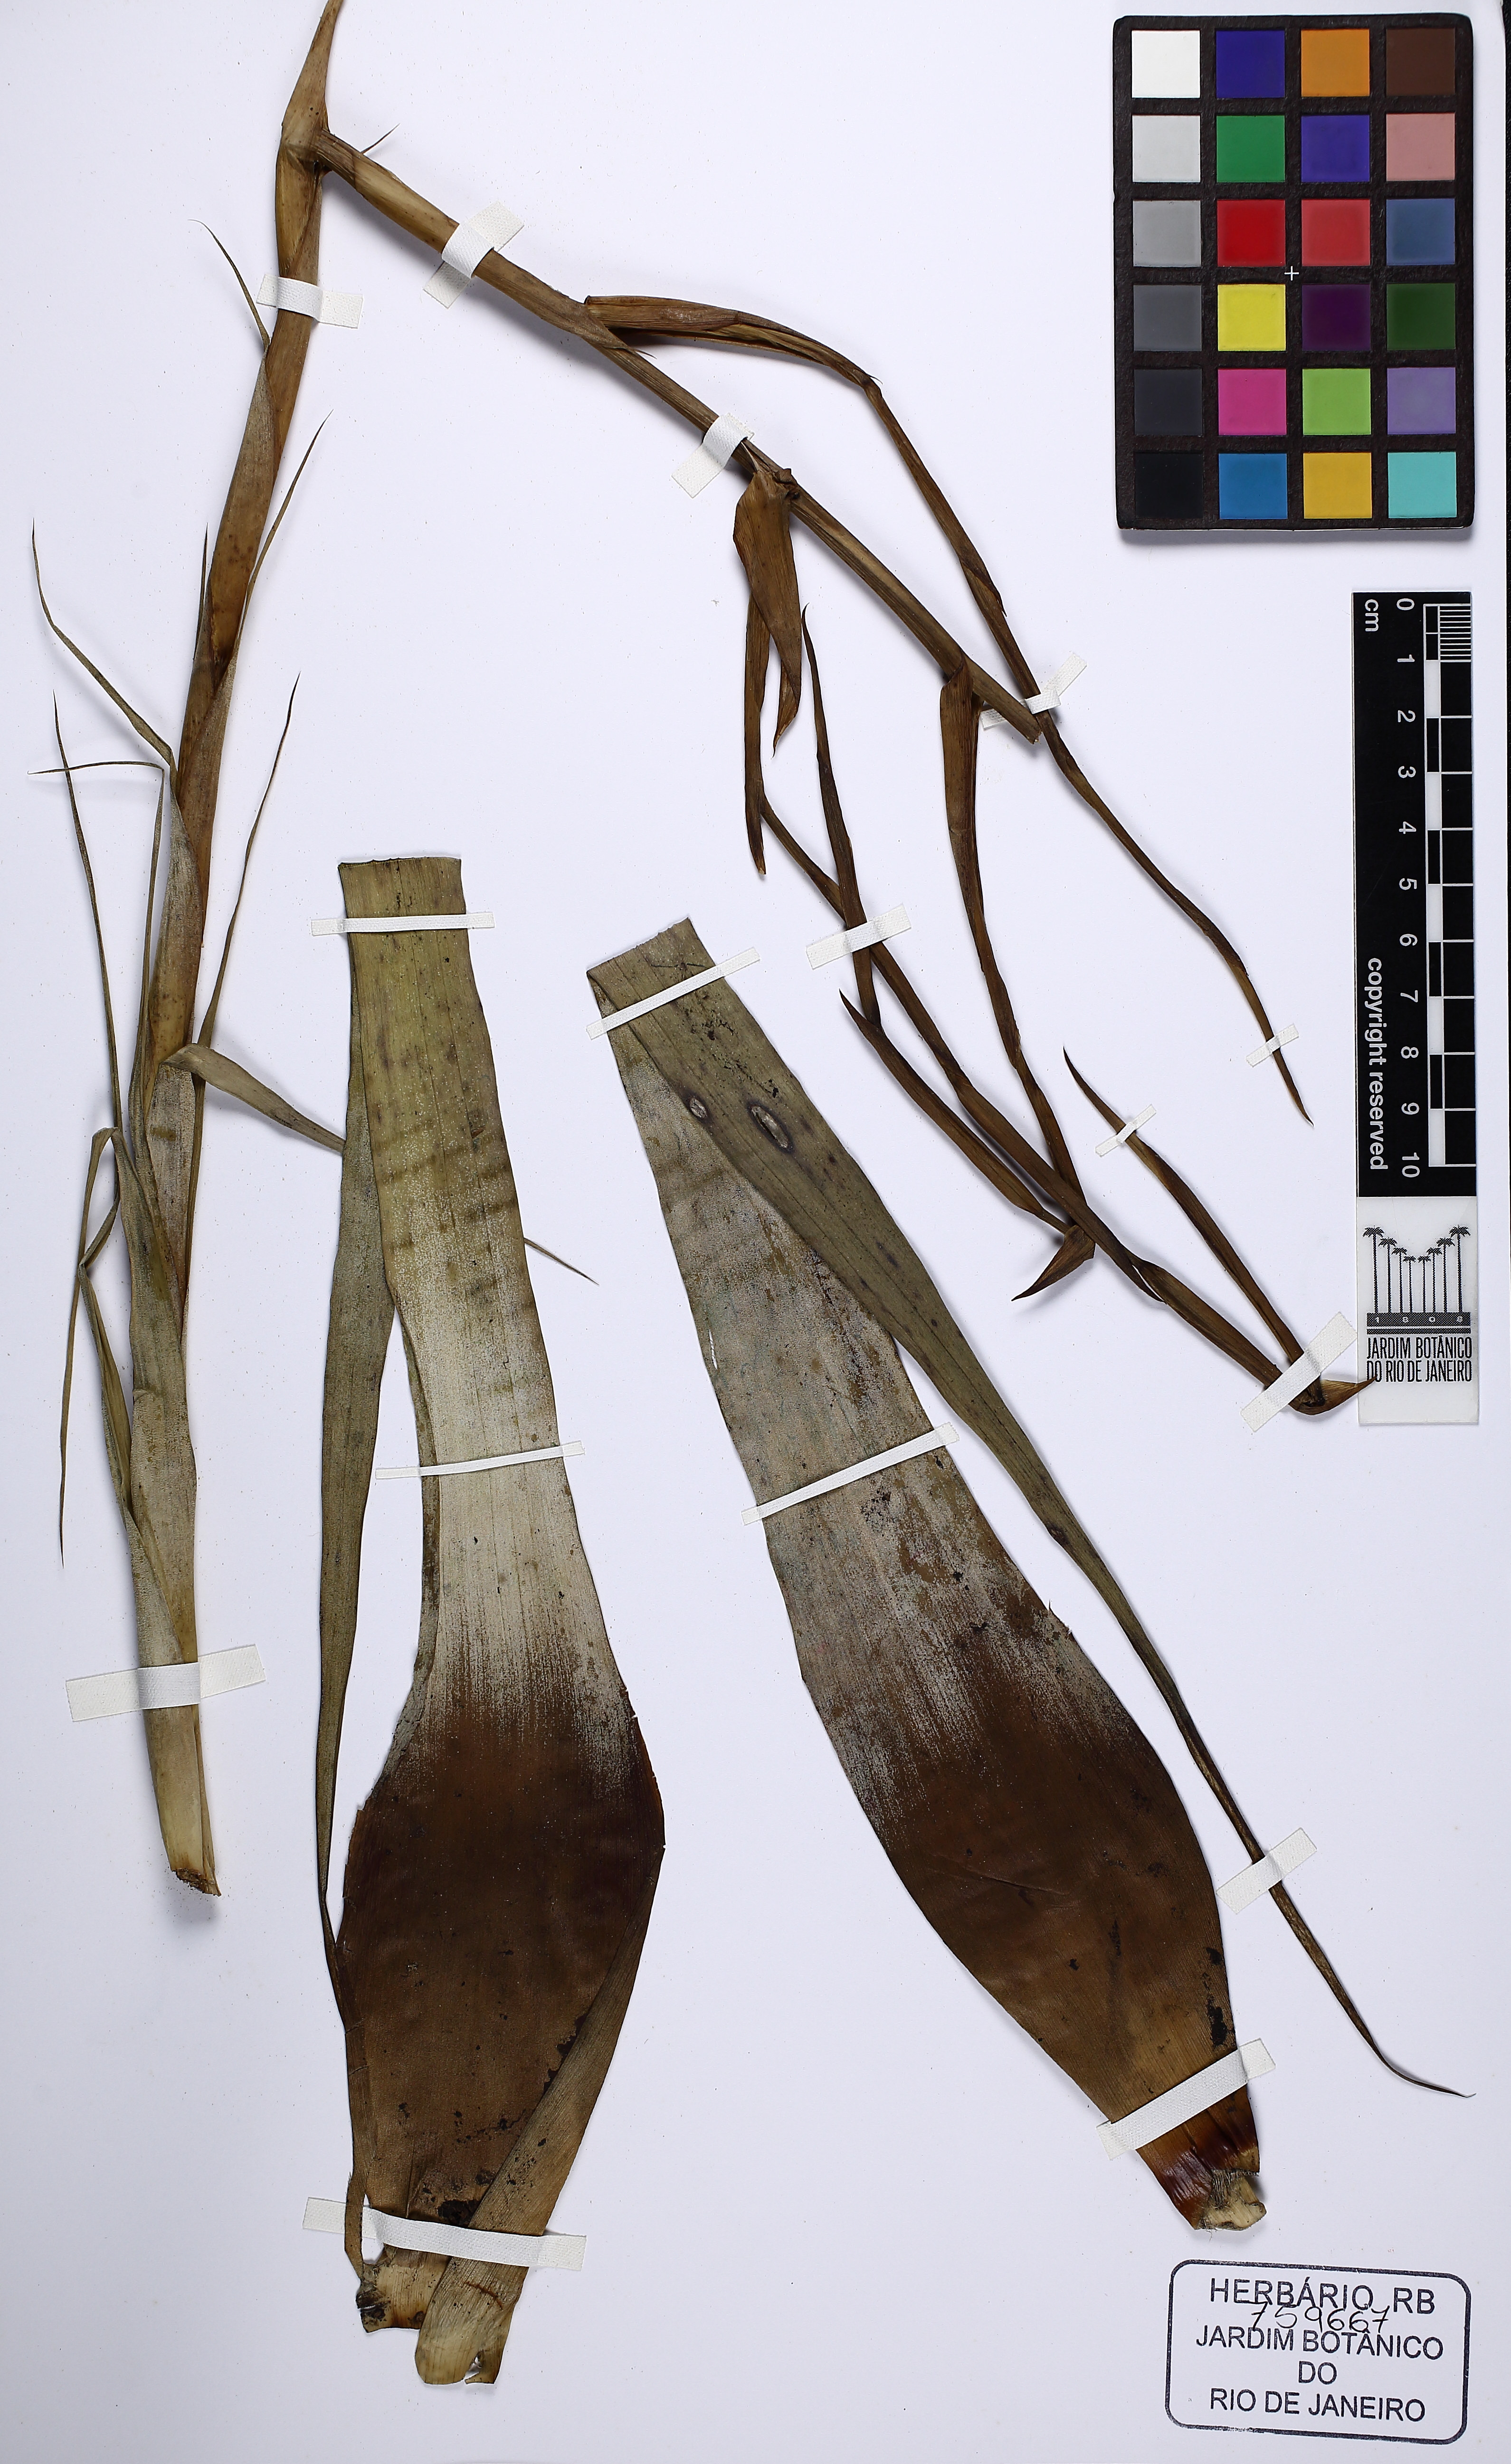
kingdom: Plantae
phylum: Tracheophyta
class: Liliopsida
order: Poales
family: Bromeliaceae
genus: Tillandsia
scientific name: Tillandsia adpressiflora
